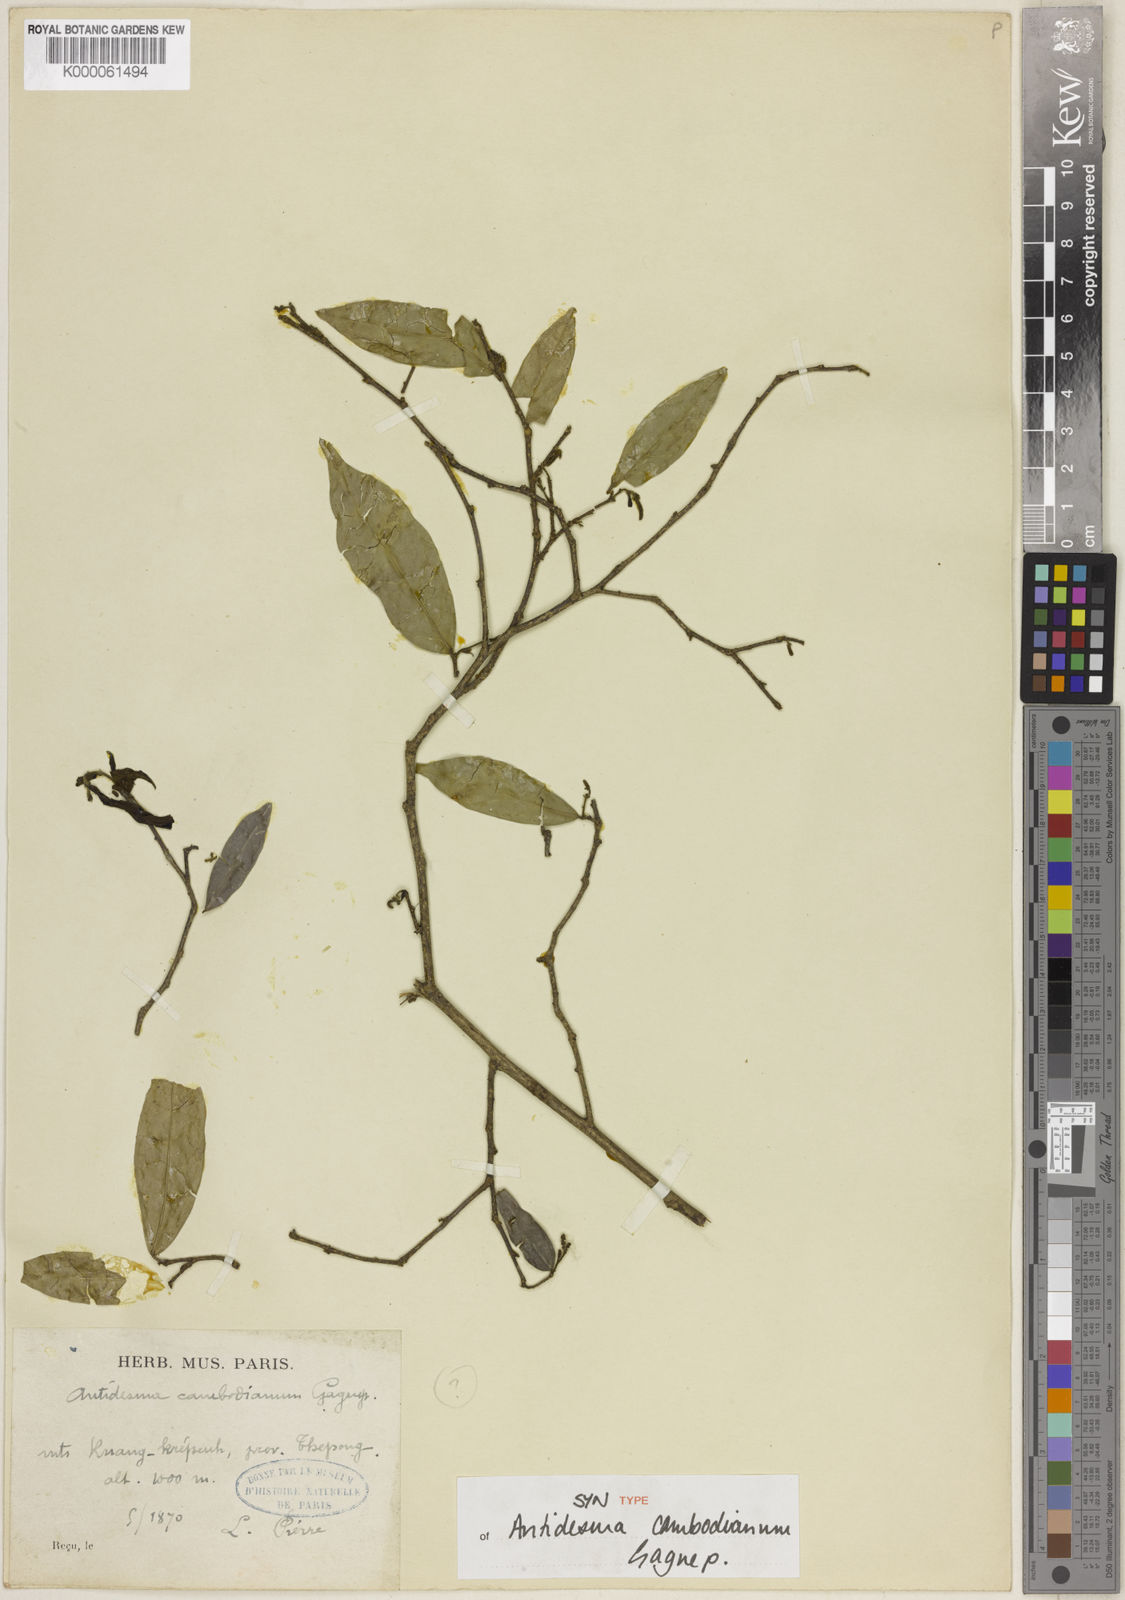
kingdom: Plantae
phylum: Tracheophyta
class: Magnoliopsida
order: Malpighiales
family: Phyllanthaceae
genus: Antidesma
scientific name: Antidesma japonicum
